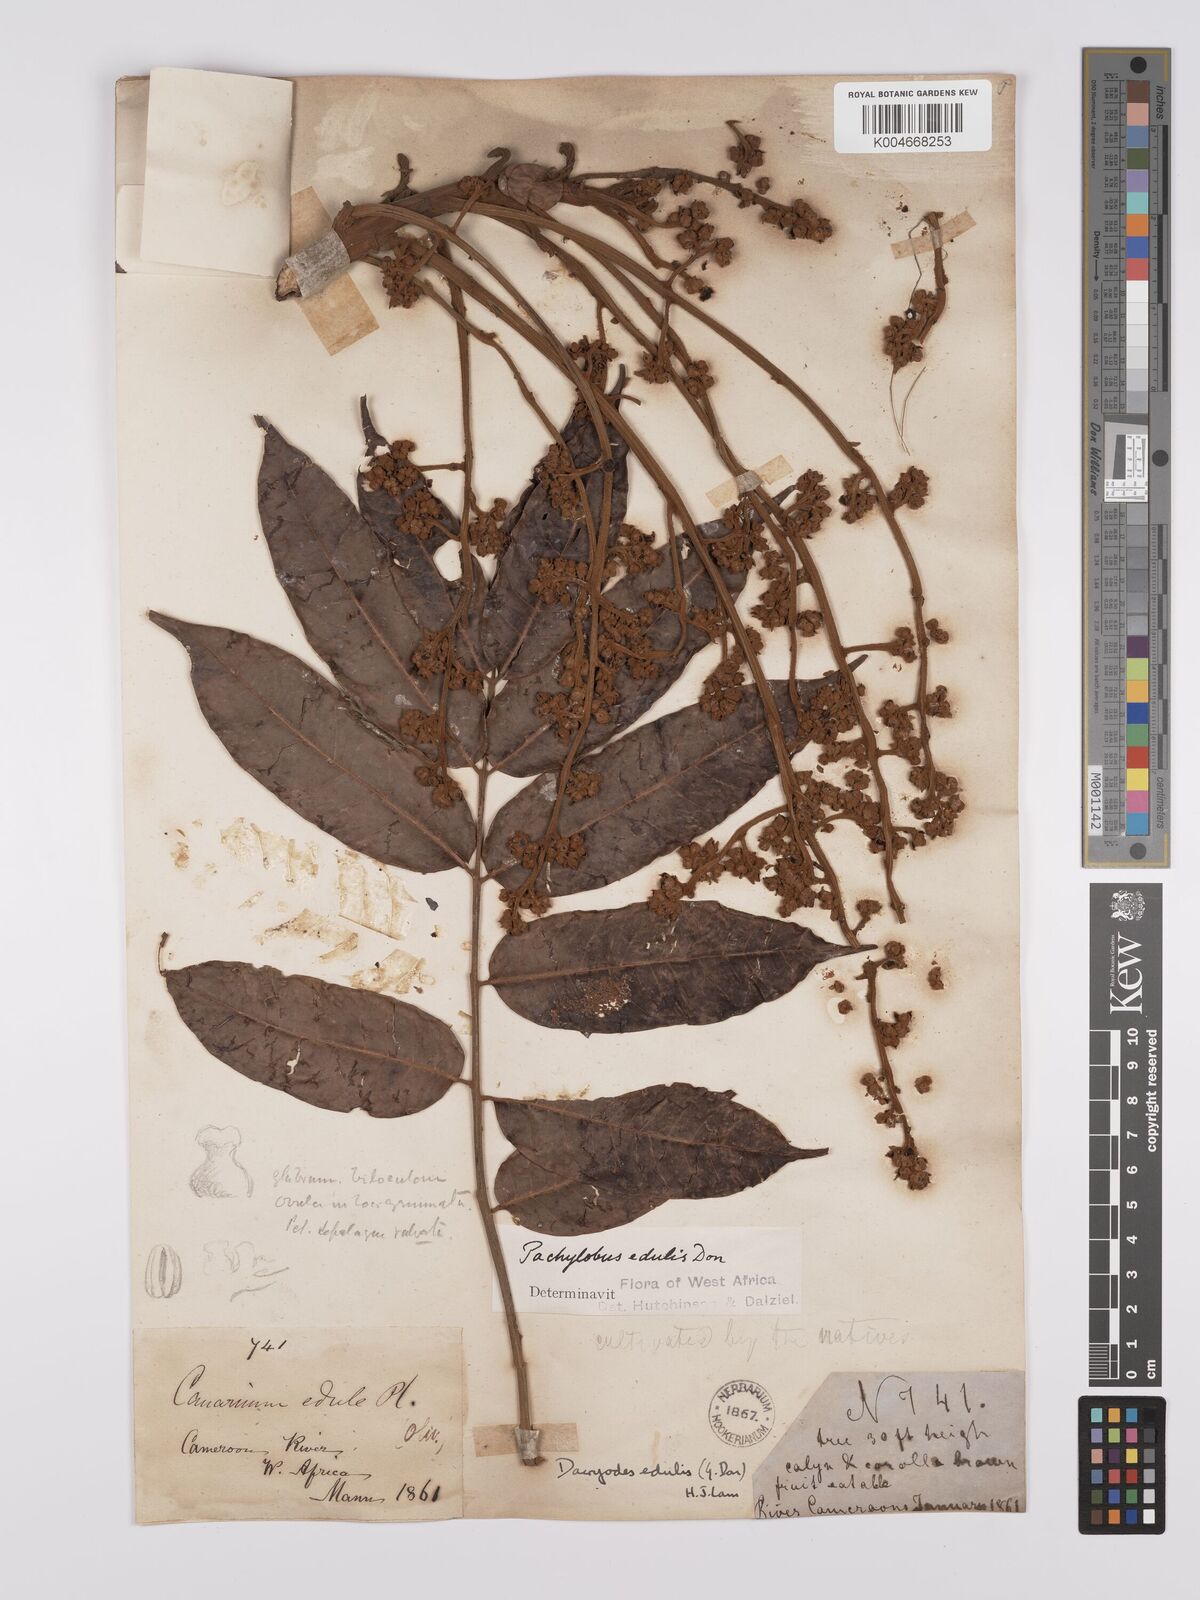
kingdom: Plantae
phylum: Tracheophyta
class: Magnoliopsida
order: Sapindales
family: Burseraceae
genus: Pachylobus
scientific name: Pachylobus edulis
